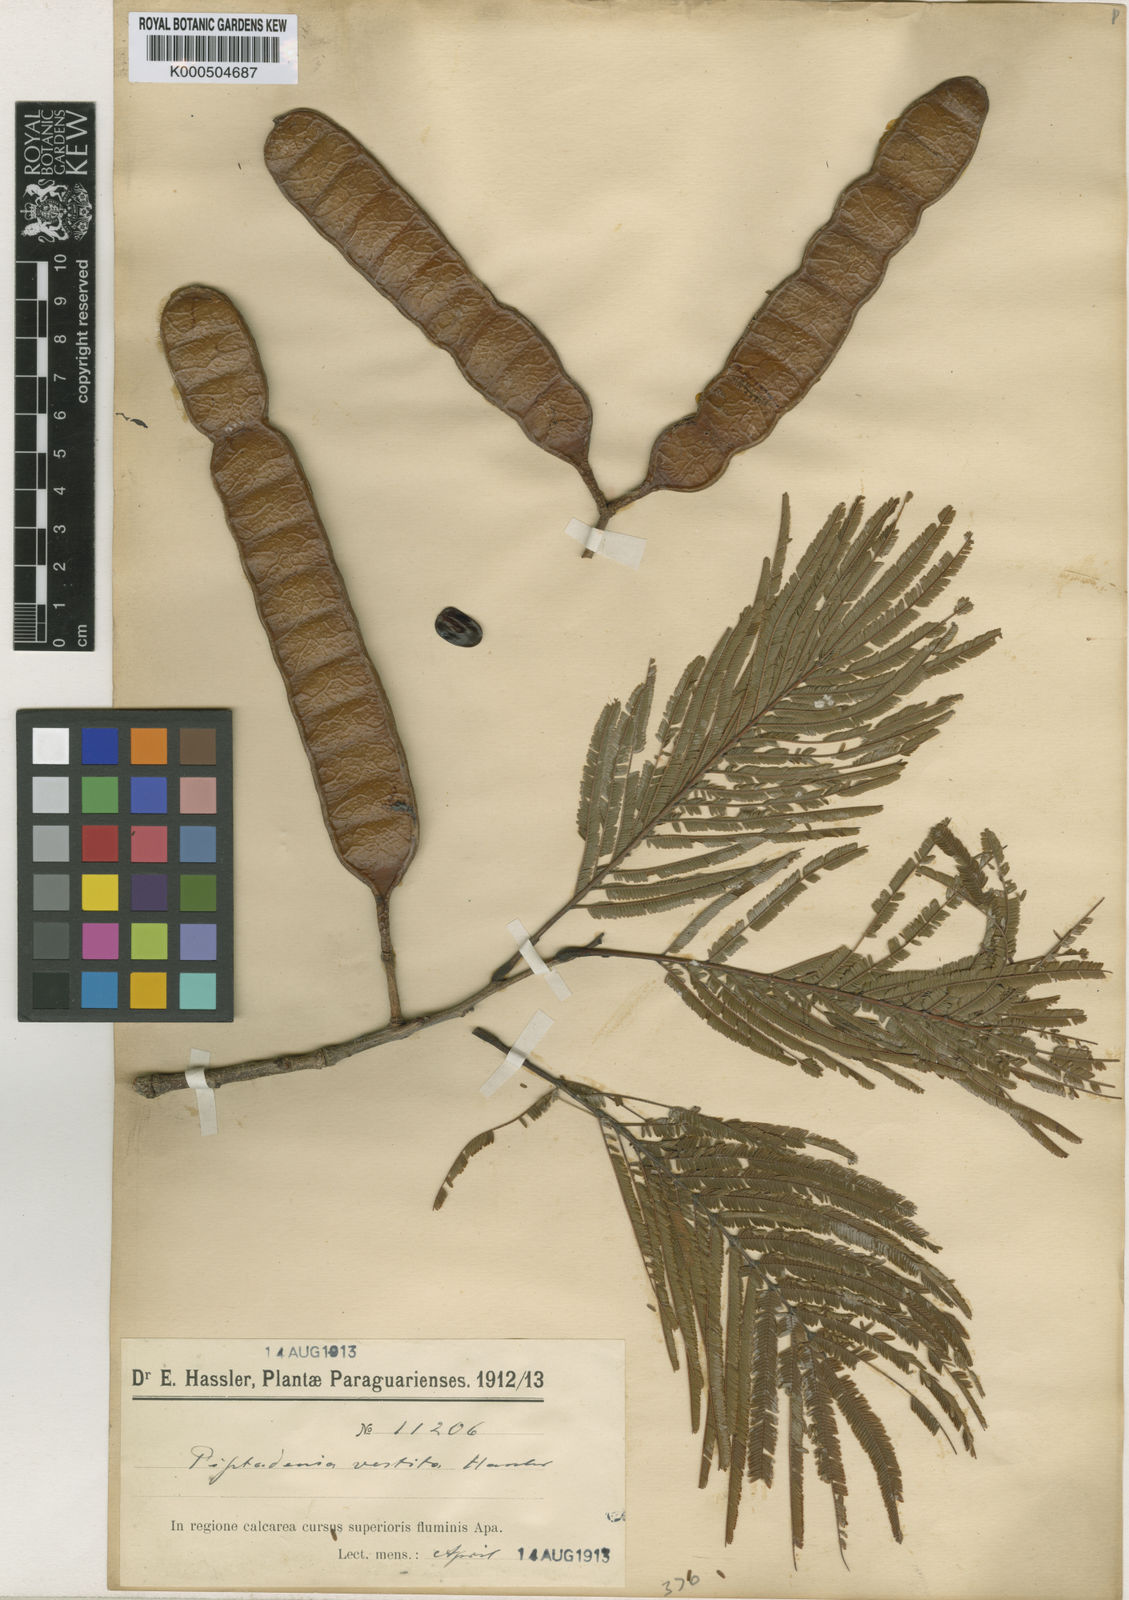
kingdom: Plantae
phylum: Tracheophyta
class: Magnoliopsida
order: Fabales
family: Fabaceae
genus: Anadenanthera
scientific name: Anadenanthera
